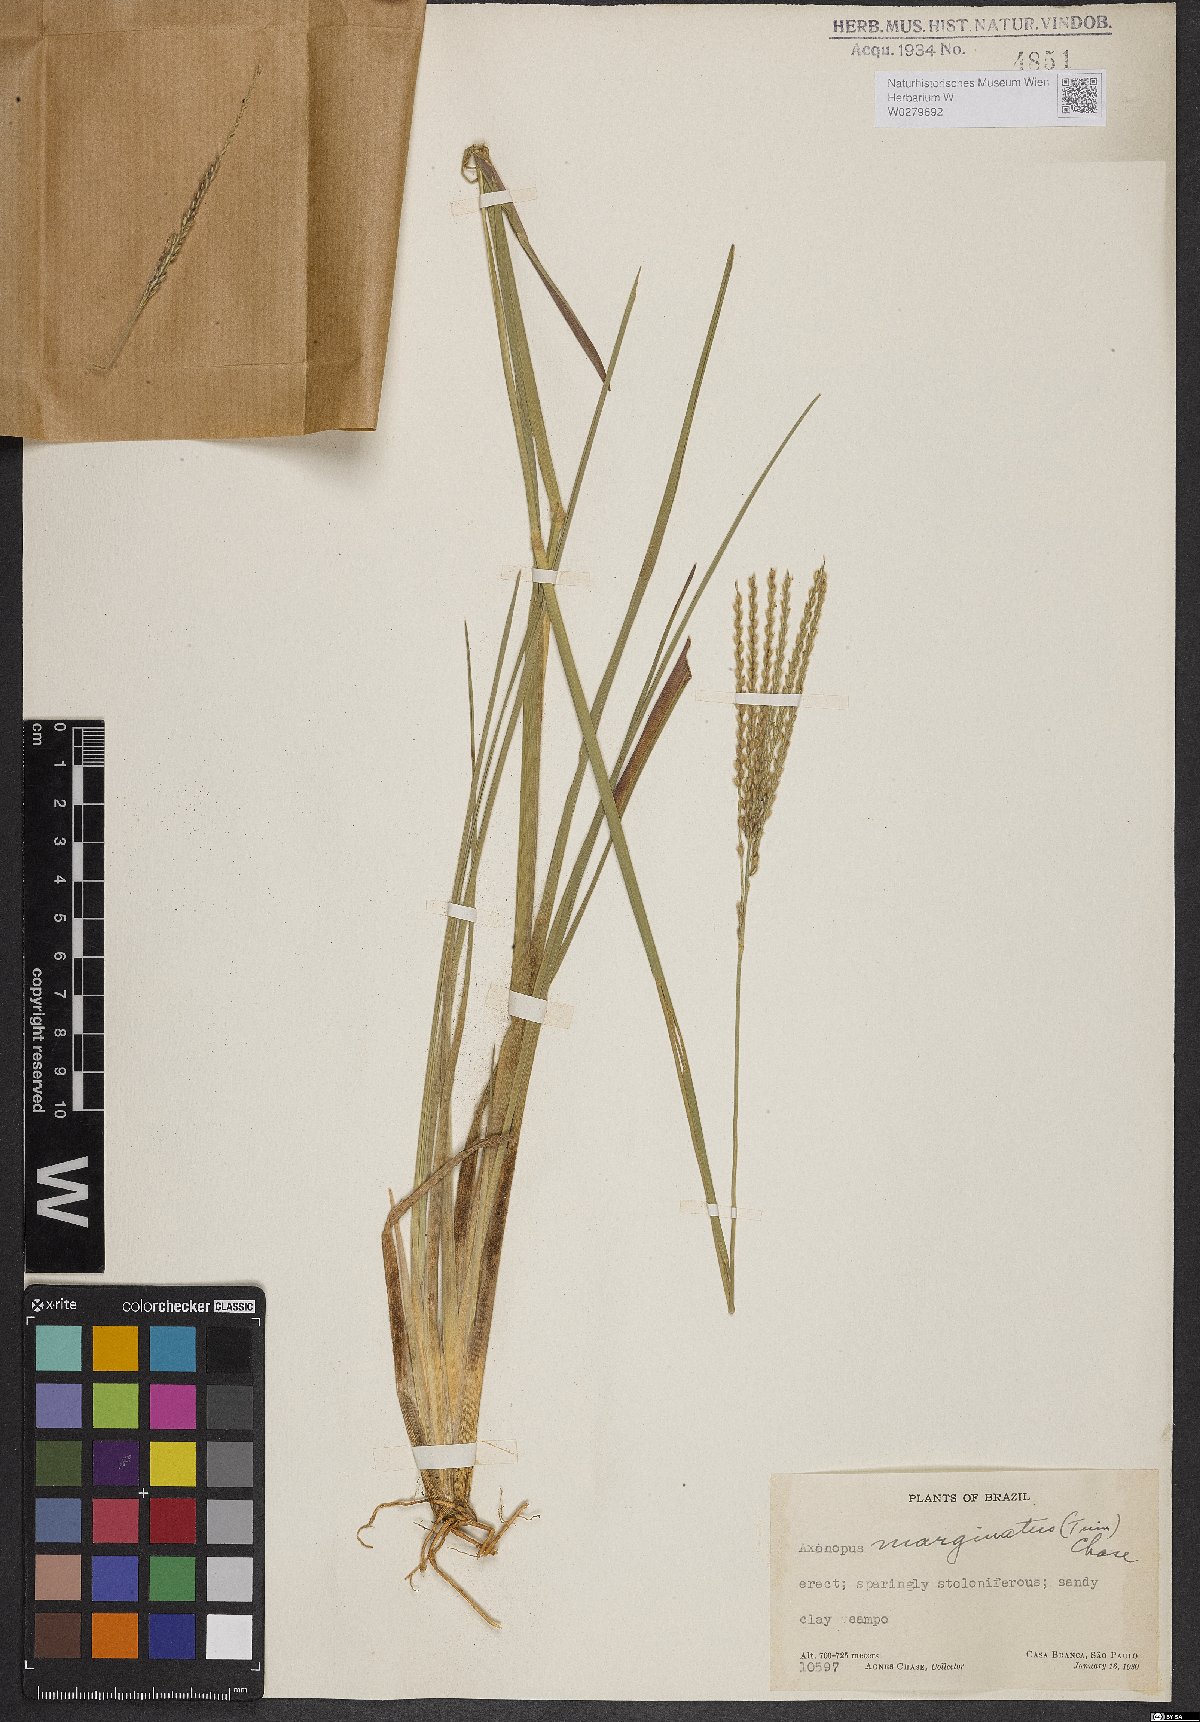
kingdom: Plantae
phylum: Tracheophyta
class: Liliopsida
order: Poales
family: Poaceae
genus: Axonopus
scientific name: Axonopus marginatus
